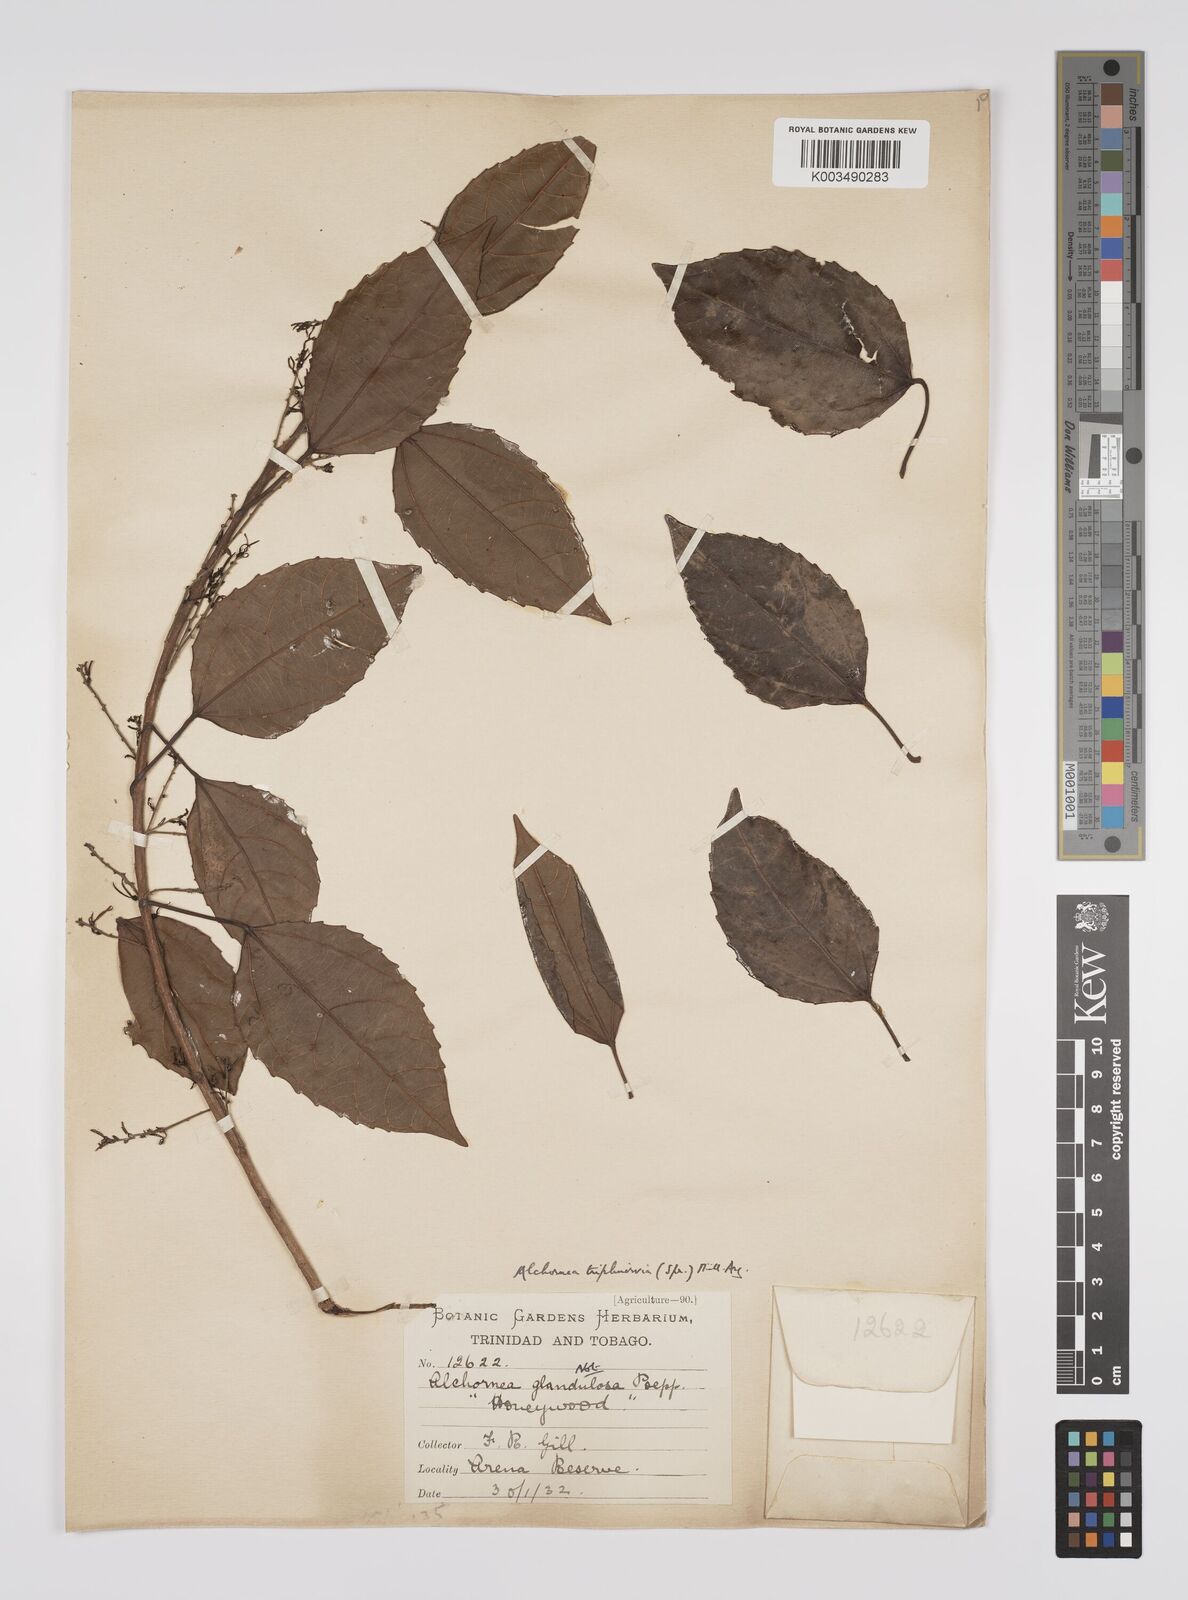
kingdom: Plantae
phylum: Tracheophyta
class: Magnoliopsida
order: Malpighiales
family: Euphorbiaceae
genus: Alchornea
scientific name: Alchornea triplinervia
